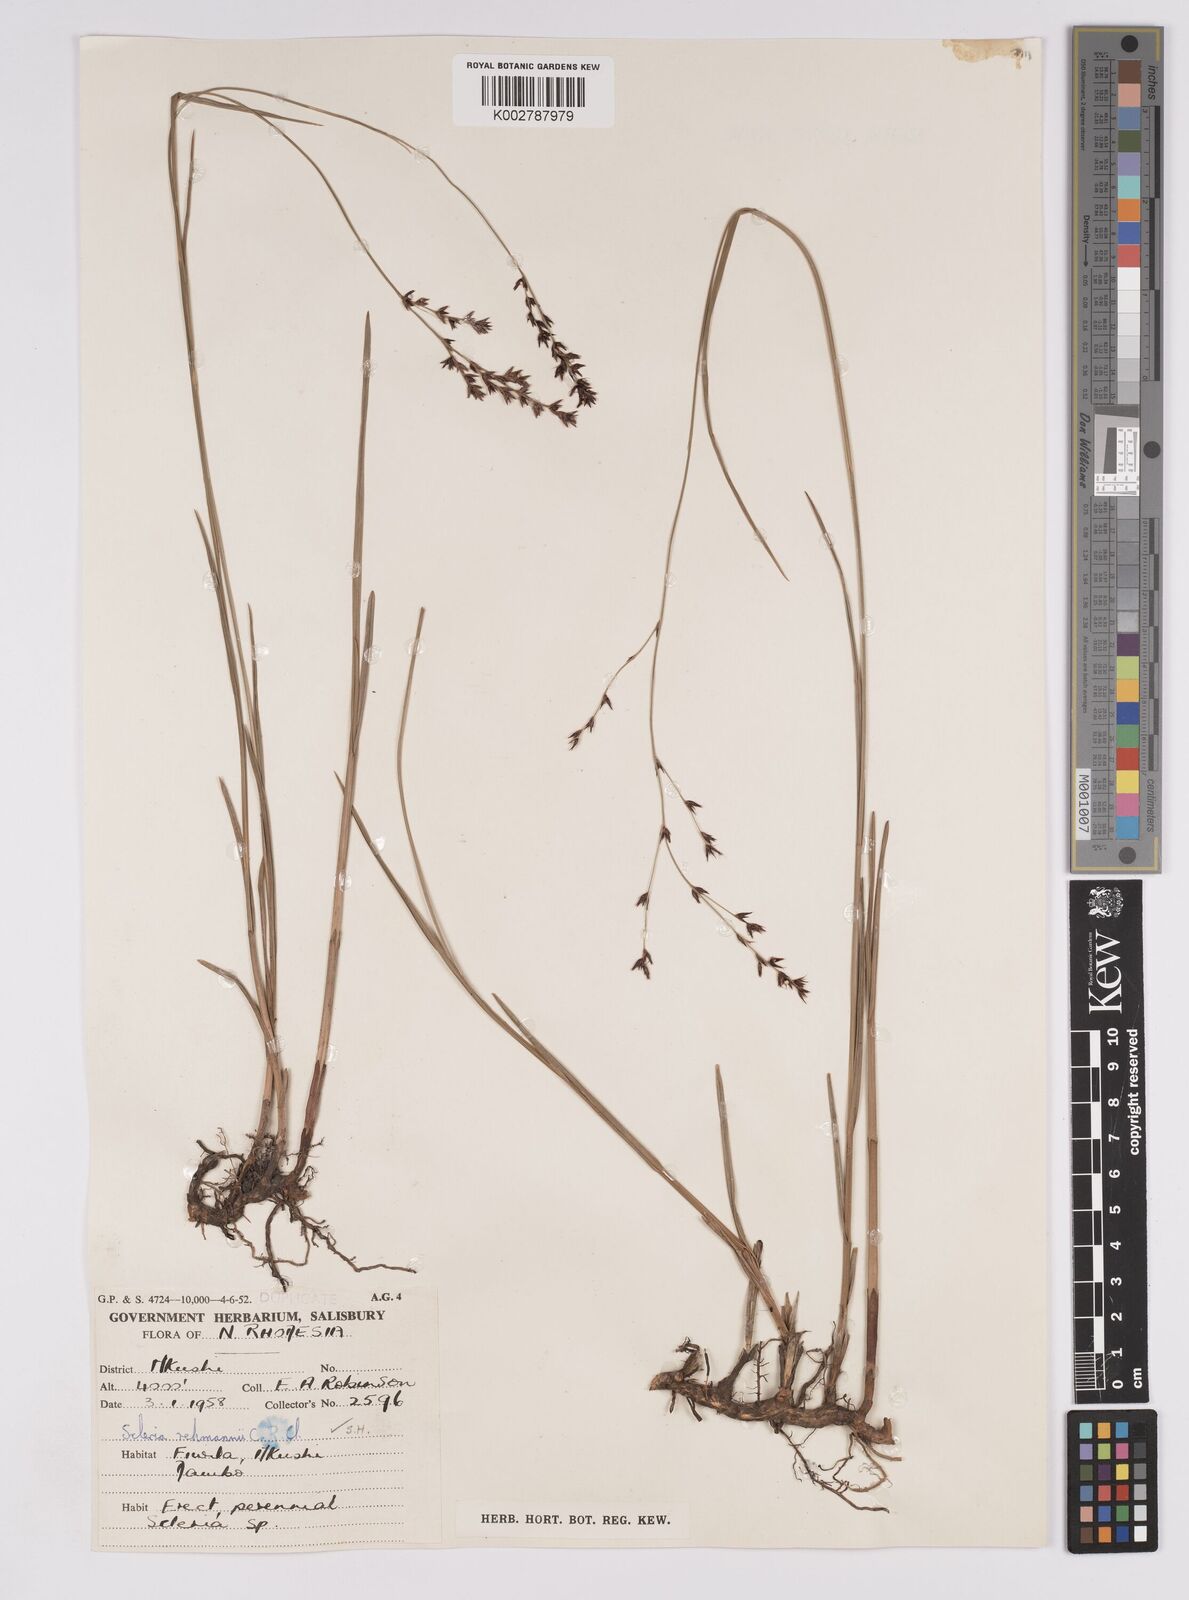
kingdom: Plantae
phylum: Tracheophyta
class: Liliopsida
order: Poales
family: Cyperaceae
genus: Scleria
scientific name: Scleria rehmannii
